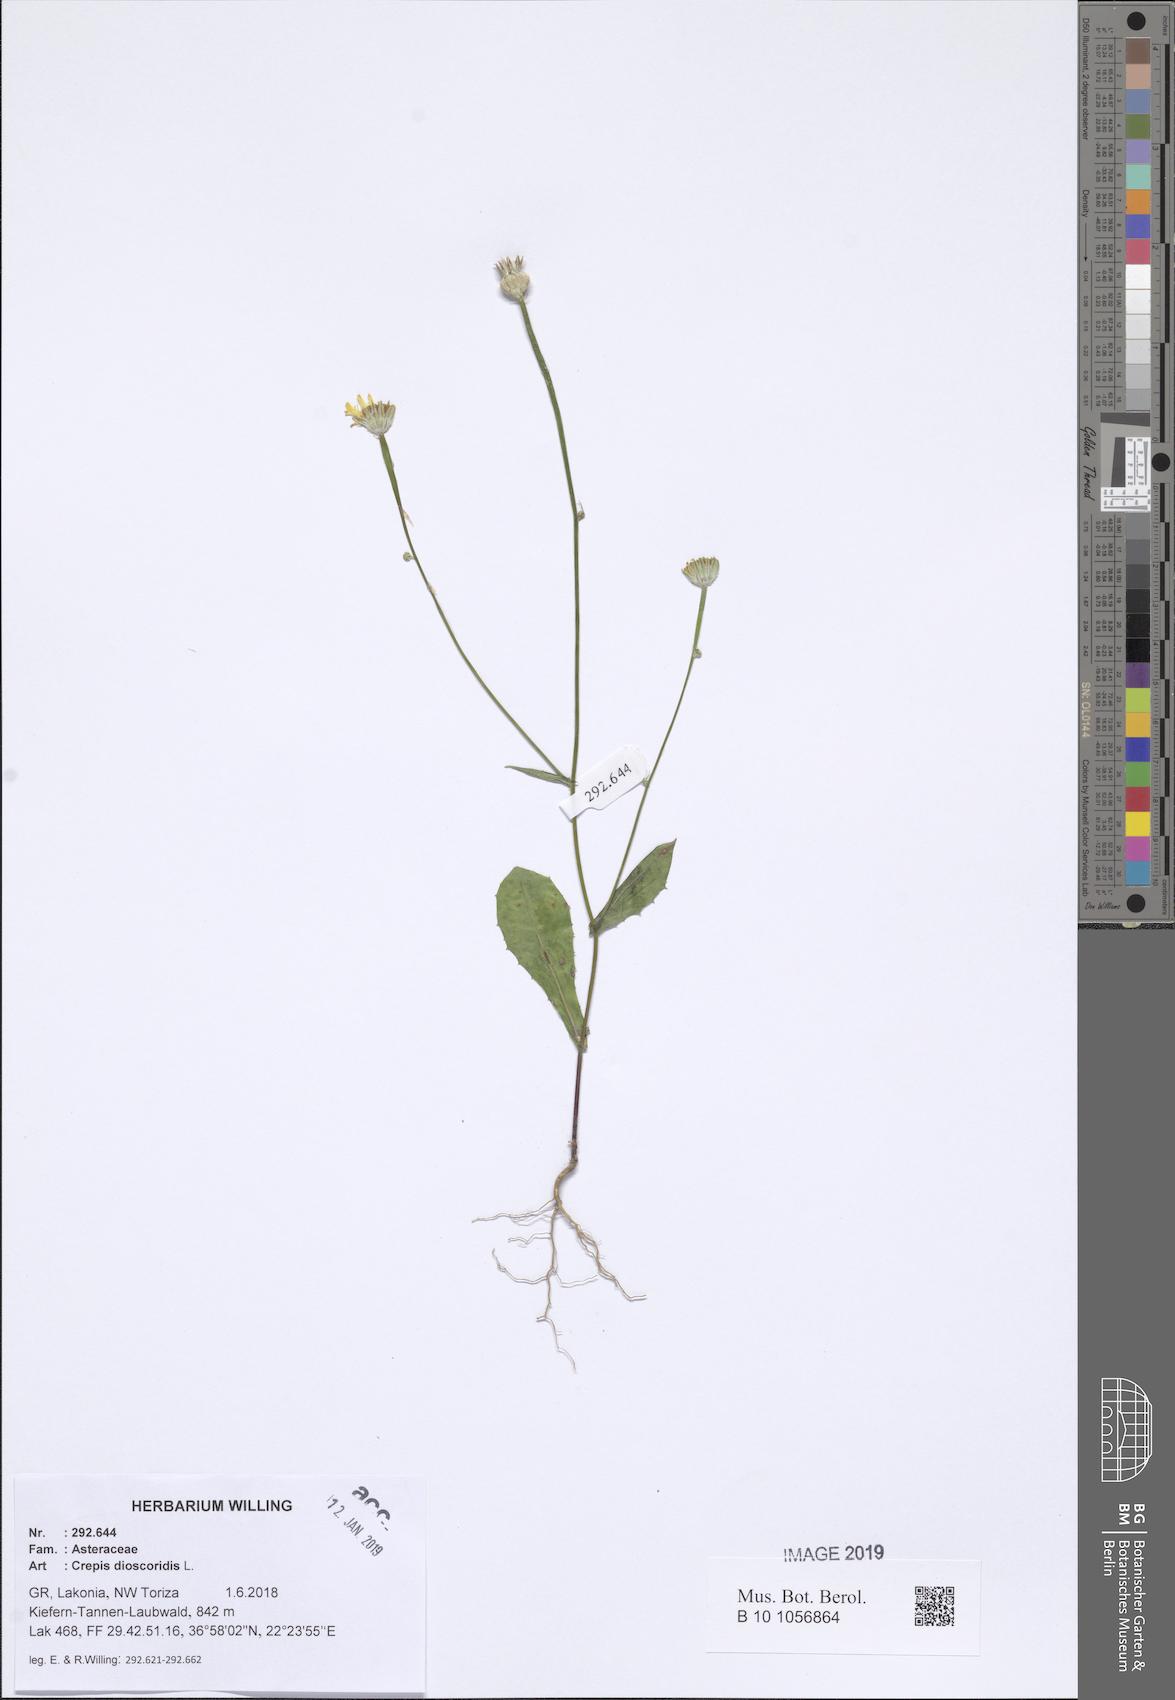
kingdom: Plantae
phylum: Tracheophyta
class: Magnoliopsida
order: Asterales
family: Asteraceae
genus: Crepis
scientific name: Crepis dioscoridis
